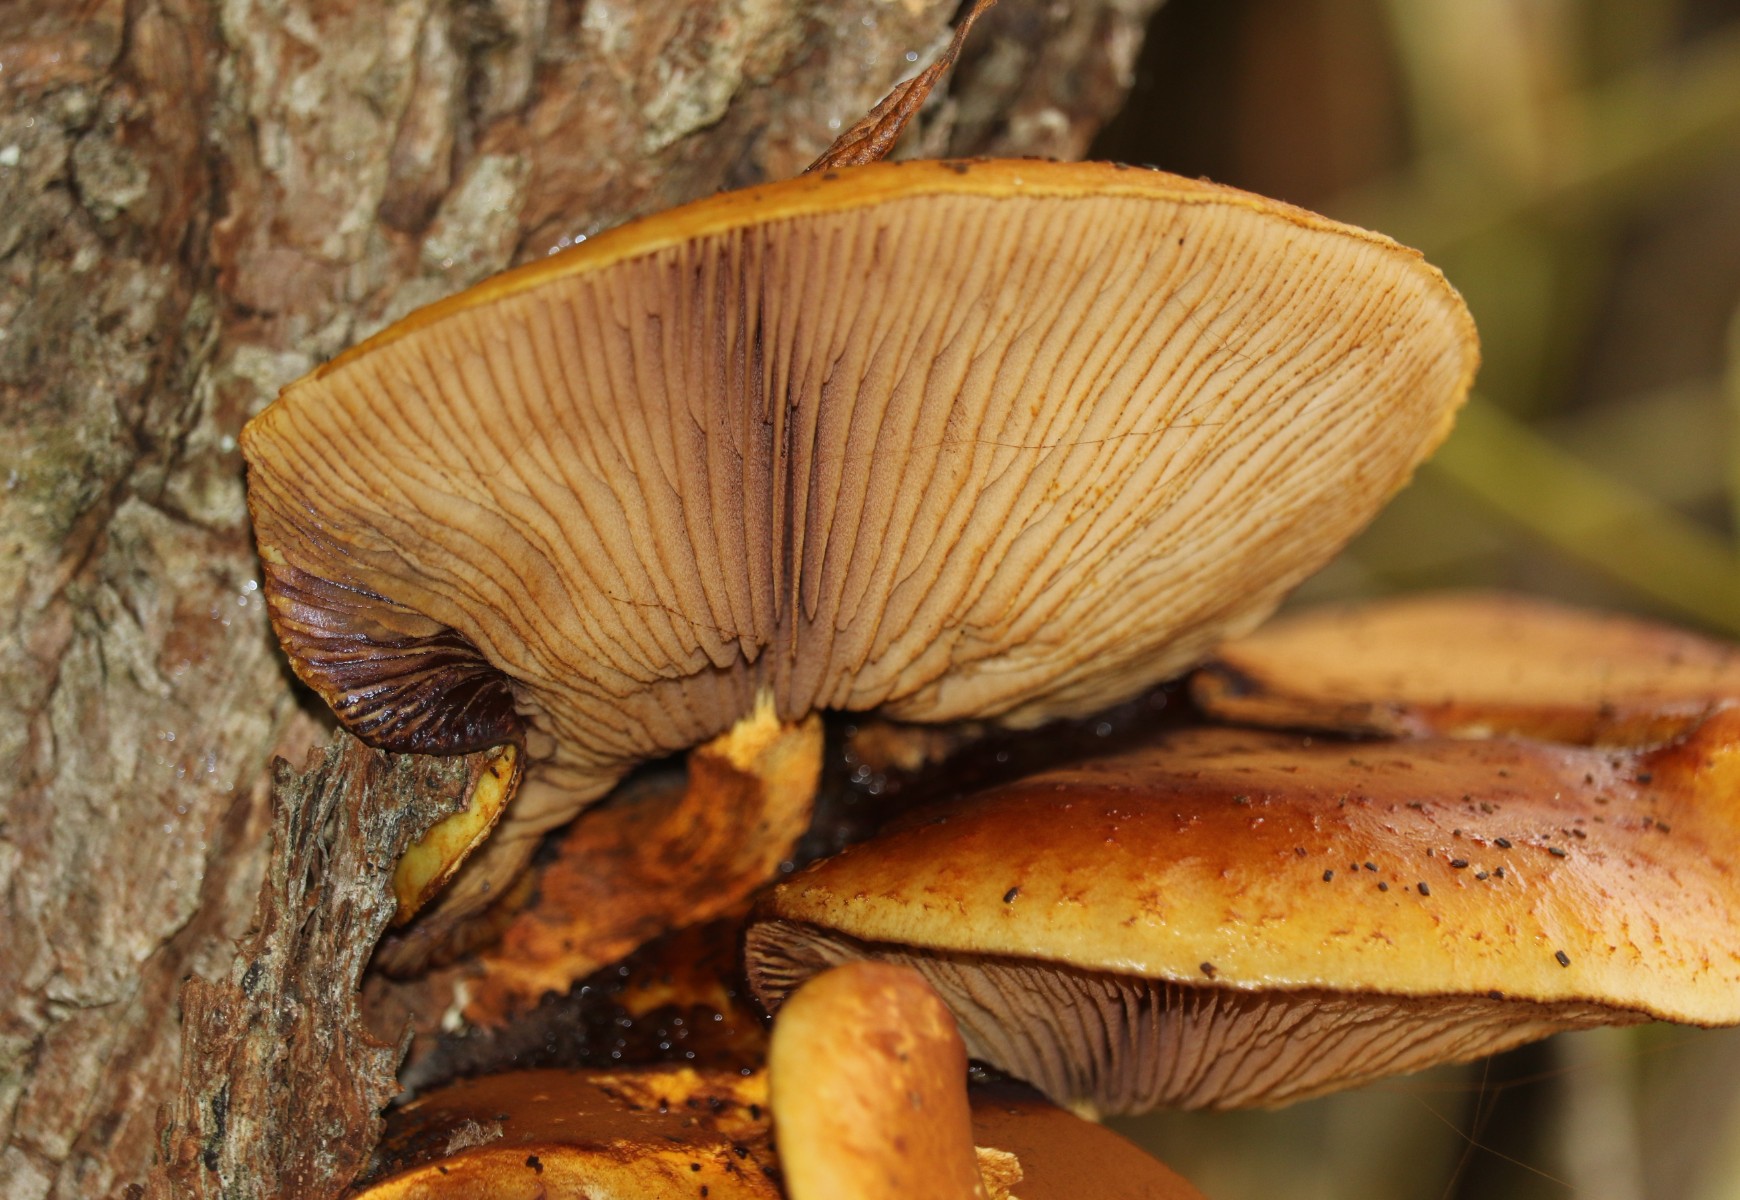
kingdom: Fungi
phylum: Basidiomycota
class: Agaricomycetes
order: Agaricales
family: Strophariaceae
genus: Pholiota
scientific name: Pholiota
